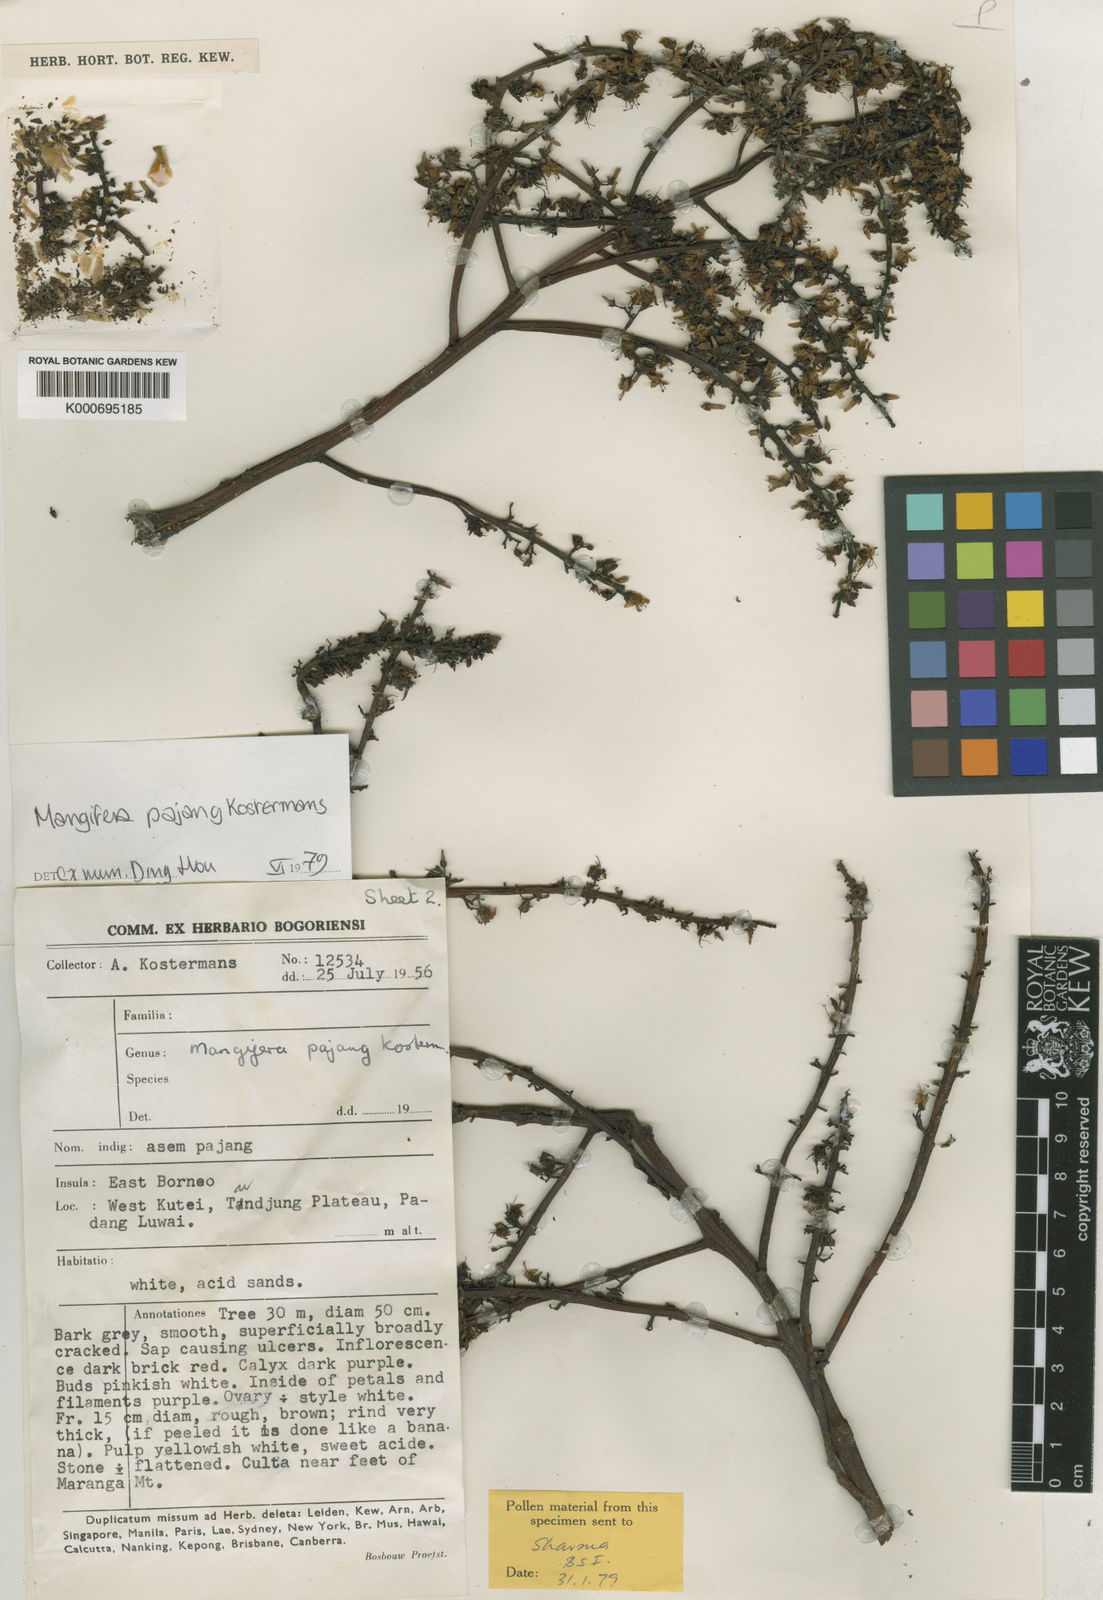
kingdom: Plantae
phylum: Tracheophyta
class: Magnoliopsida
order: Sapindales
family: Anacardiaceae
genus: Mangifera
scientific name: Mangifera pajang
